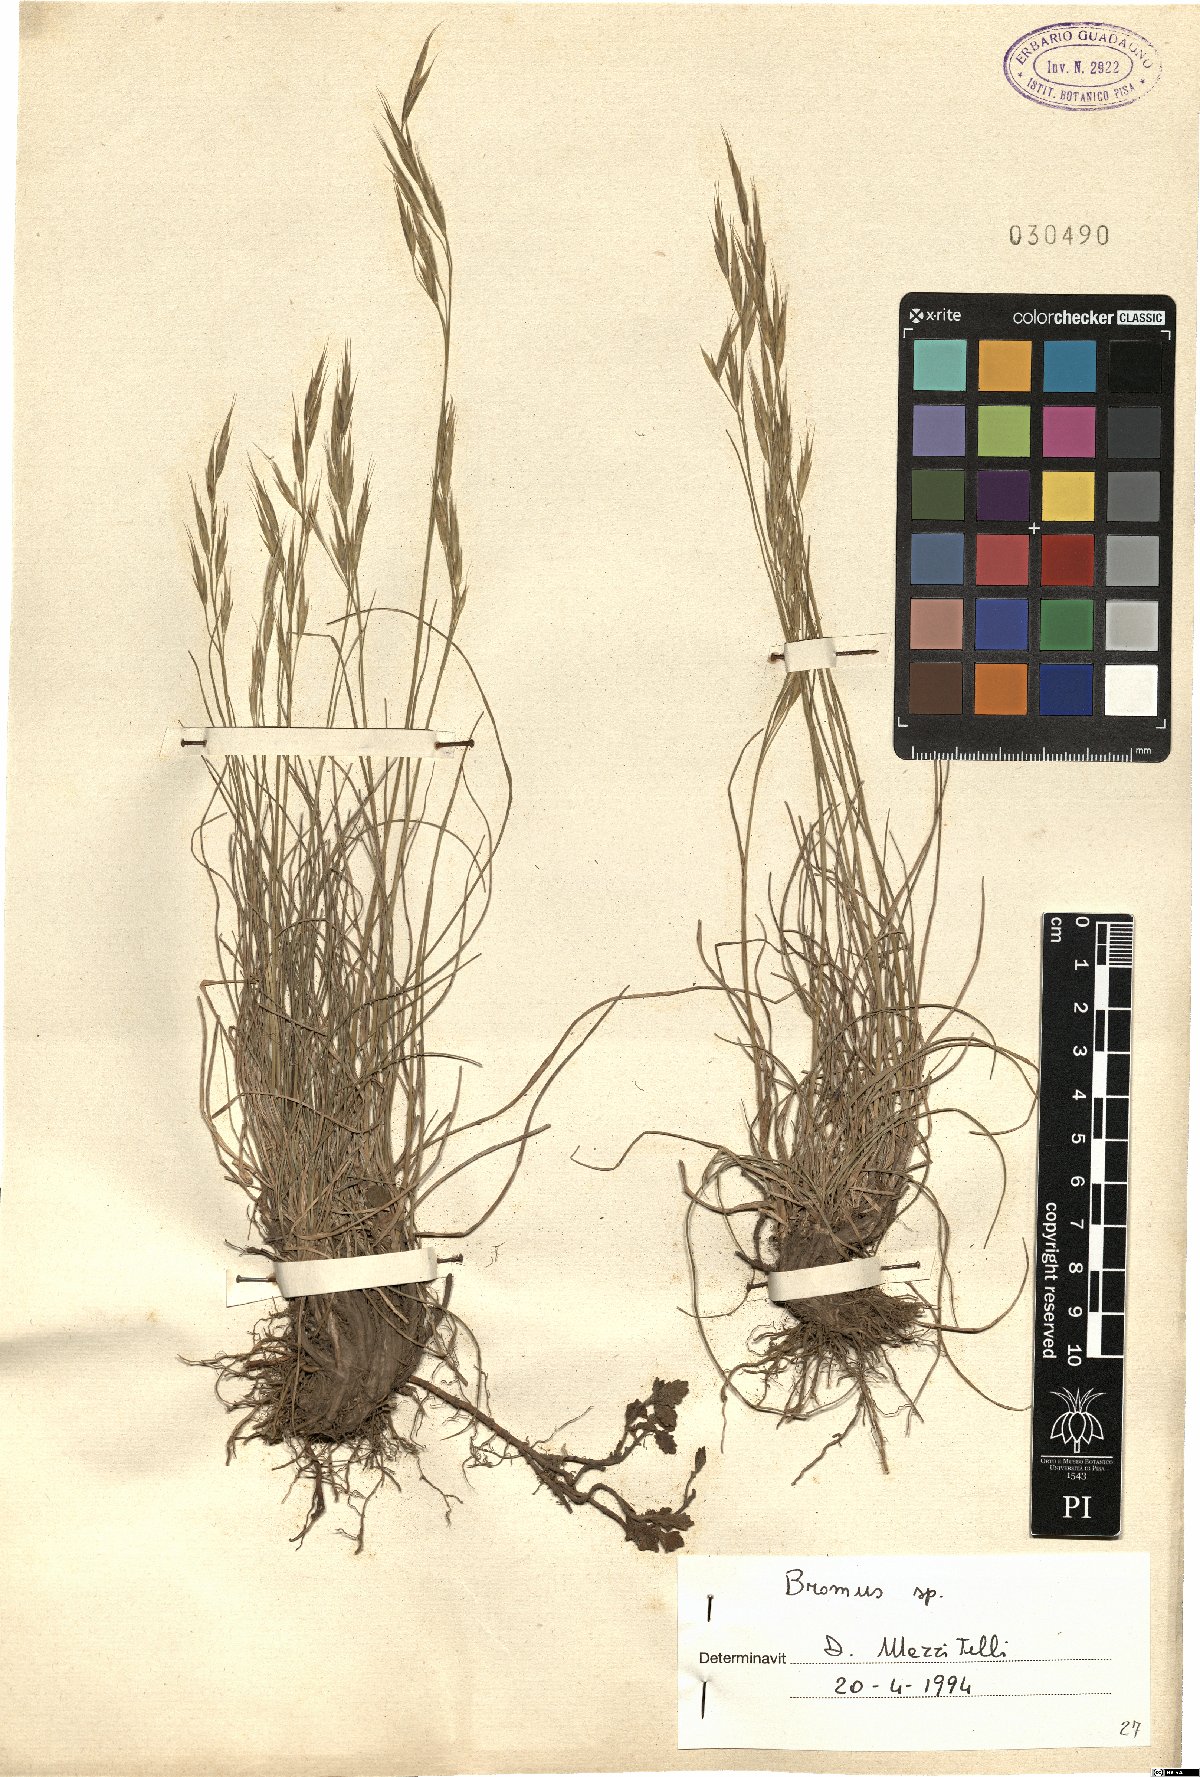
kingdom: Plantae
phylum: Tracheophyta
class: Liliopsida
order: Poales
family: Poaceae
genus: Bromus
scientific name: Bromus
